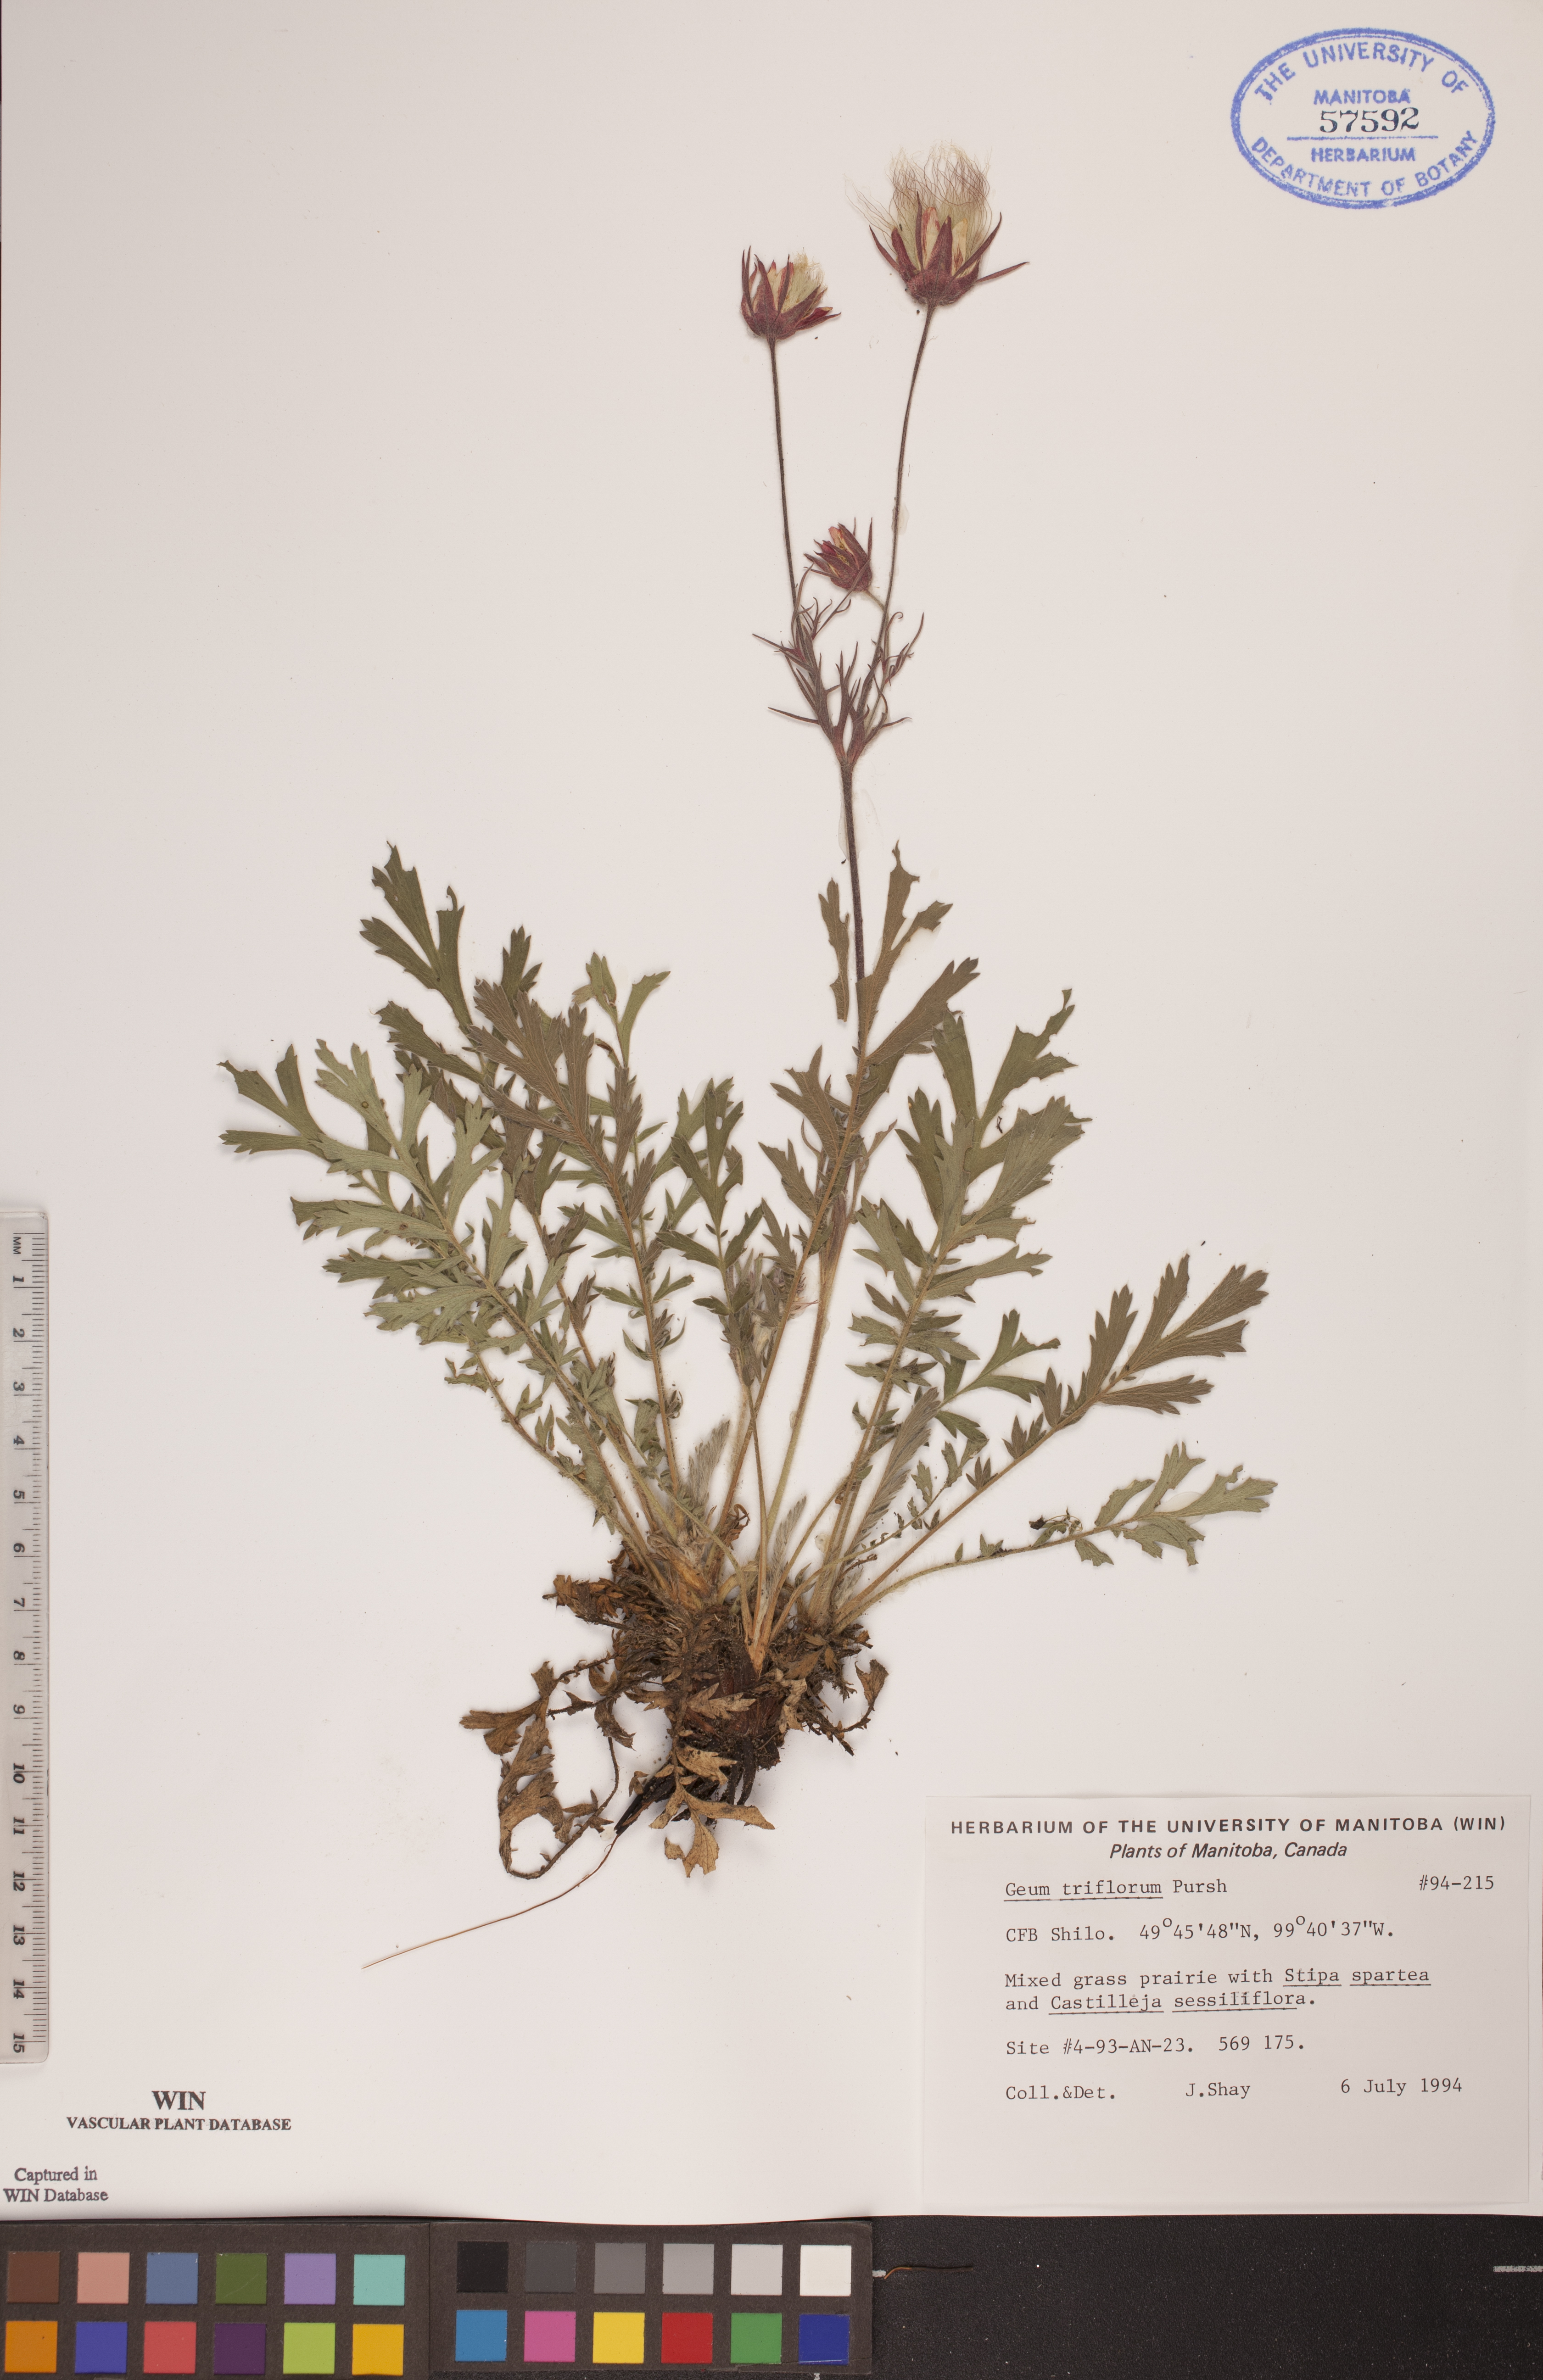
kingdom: Plantae
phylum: Tracheophyta
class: Magnoliopsida
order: Rosales
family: Rosaceae
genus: Geum
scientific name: Geum triflorum
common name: Old man's whiskers
